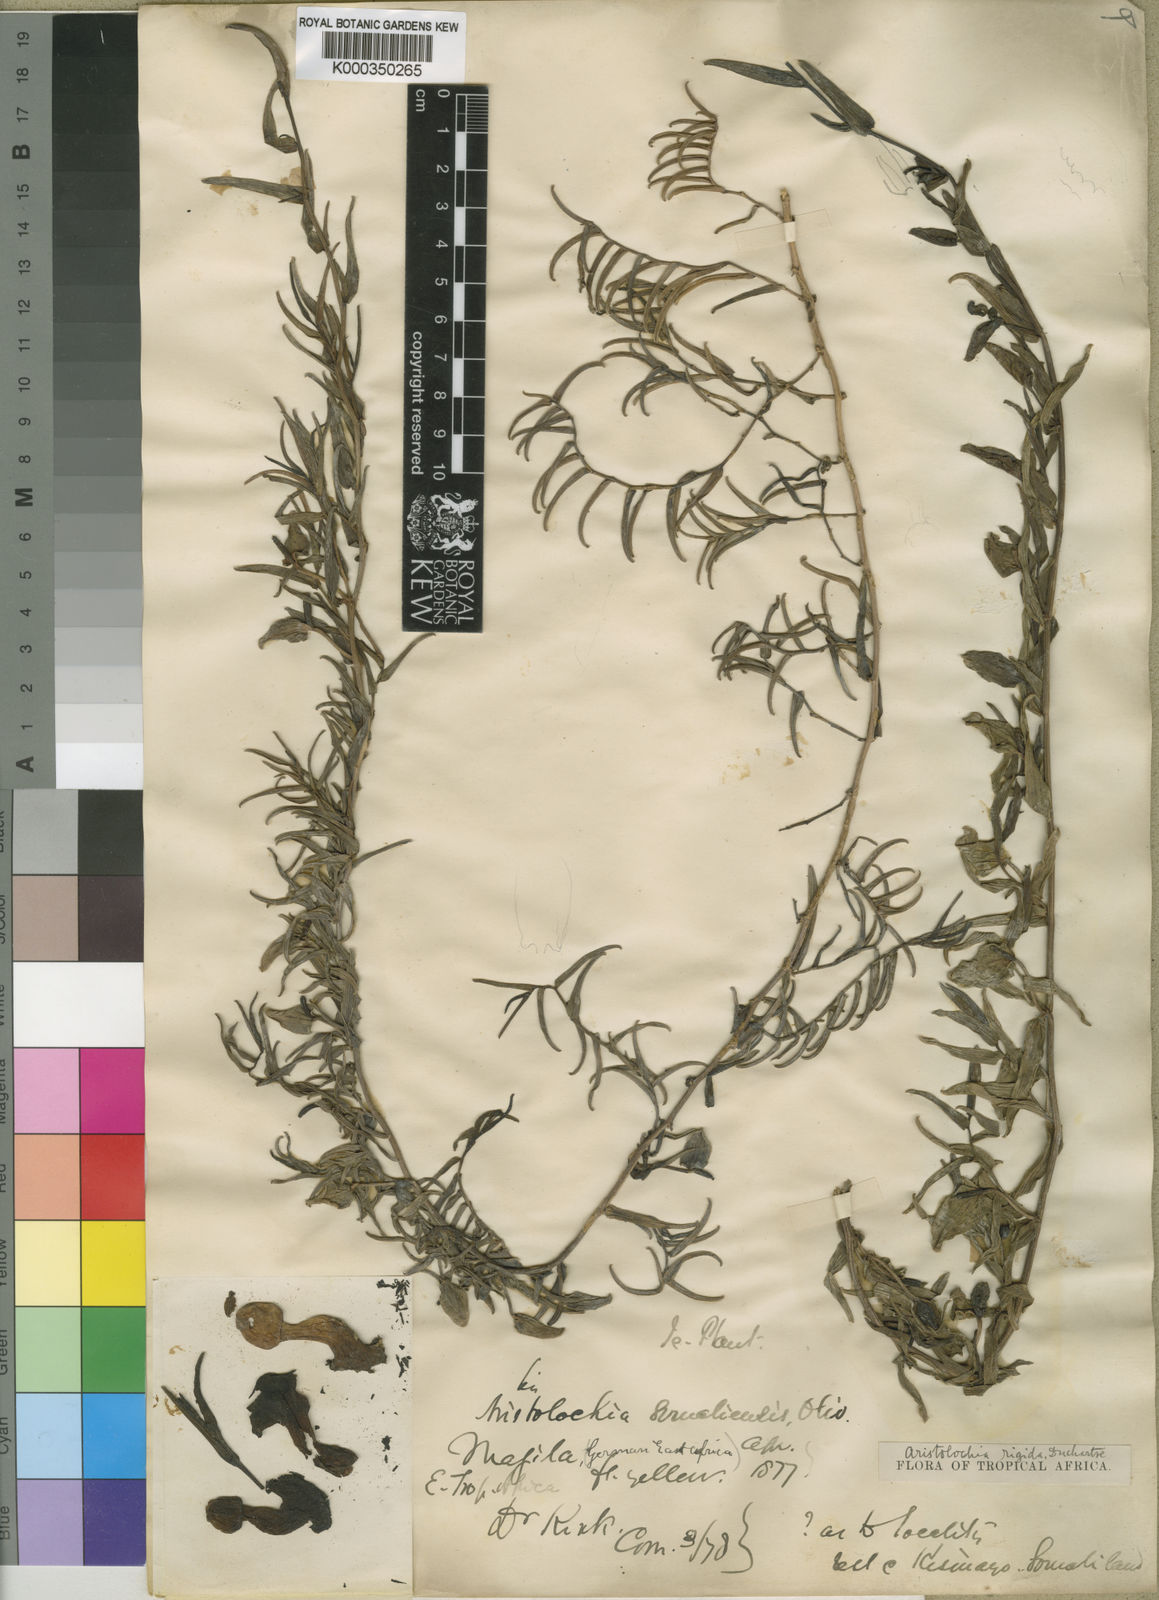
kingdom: Plantae
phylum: Tracheophyta
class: Magnoliopsida
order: Piperales
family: Aristolochiaceae
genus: Aristolochia
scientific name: Aristolochia rigida
